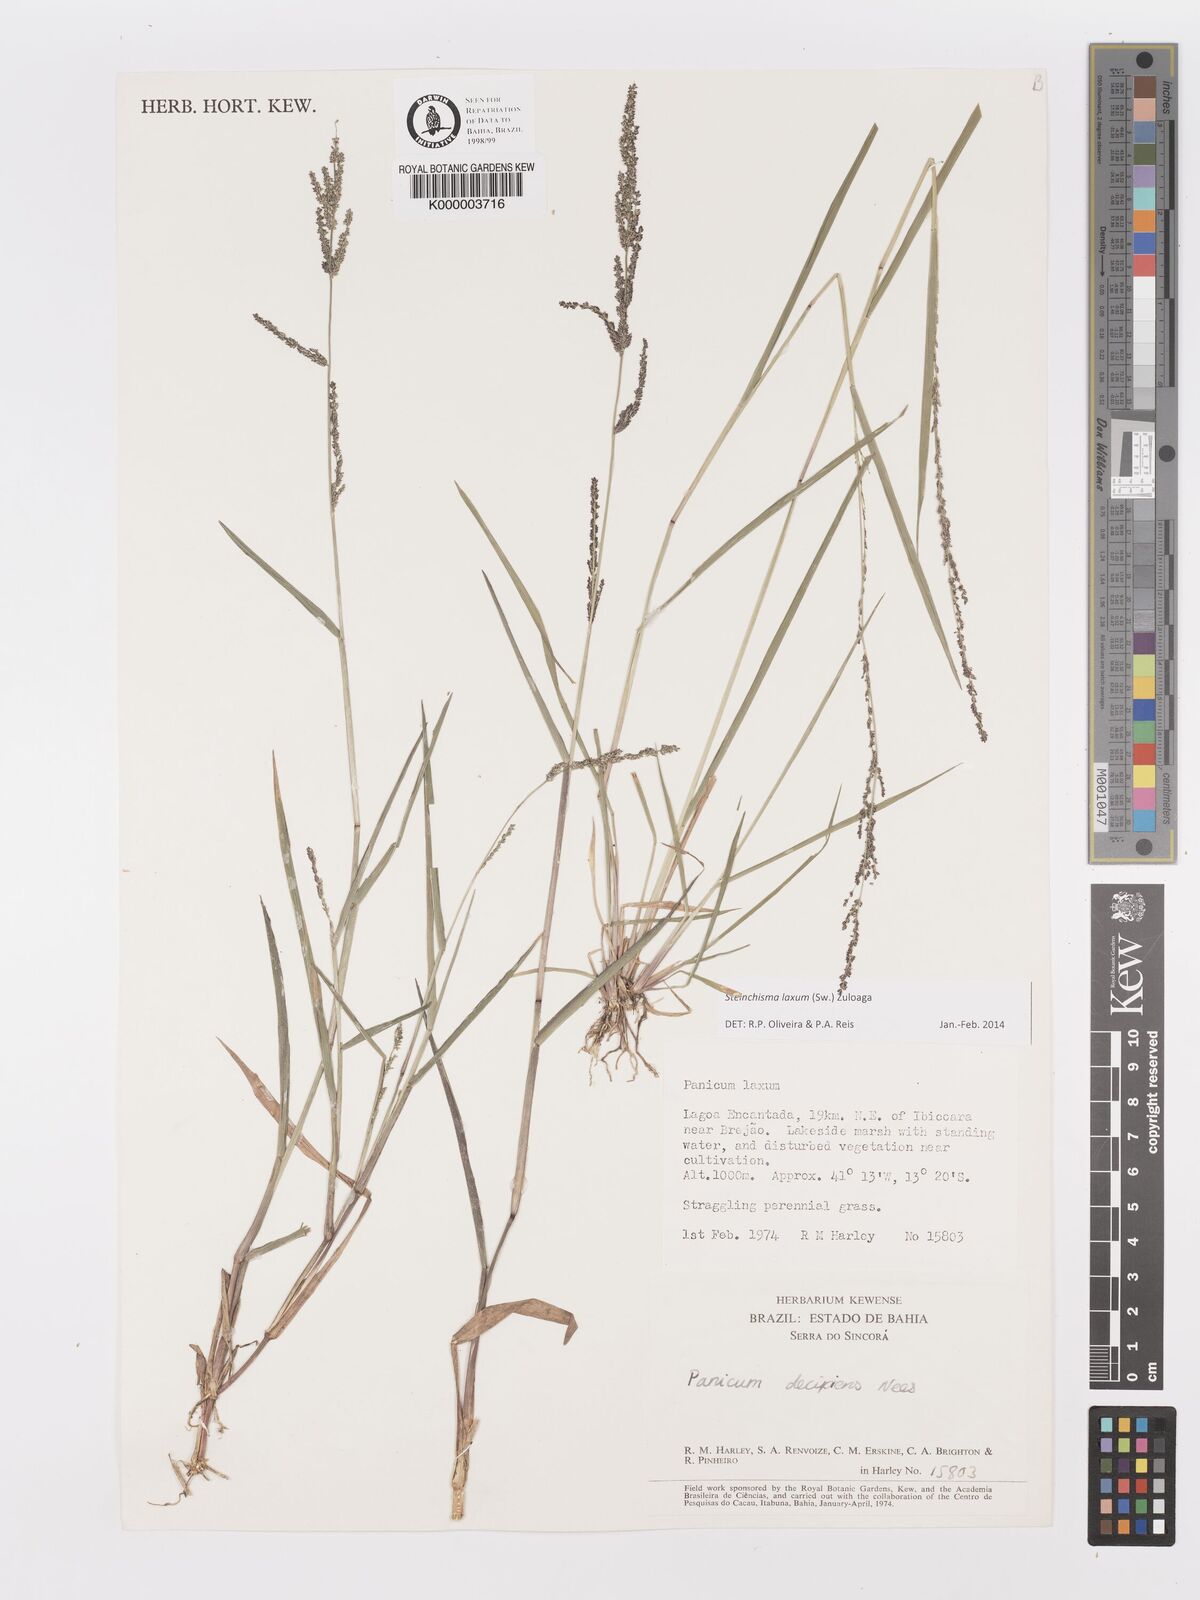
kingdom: Plantae
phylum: Tracheophyta
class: Liliopsida
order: Poales
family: Poaceae
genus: Panicum
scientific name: Panicum
